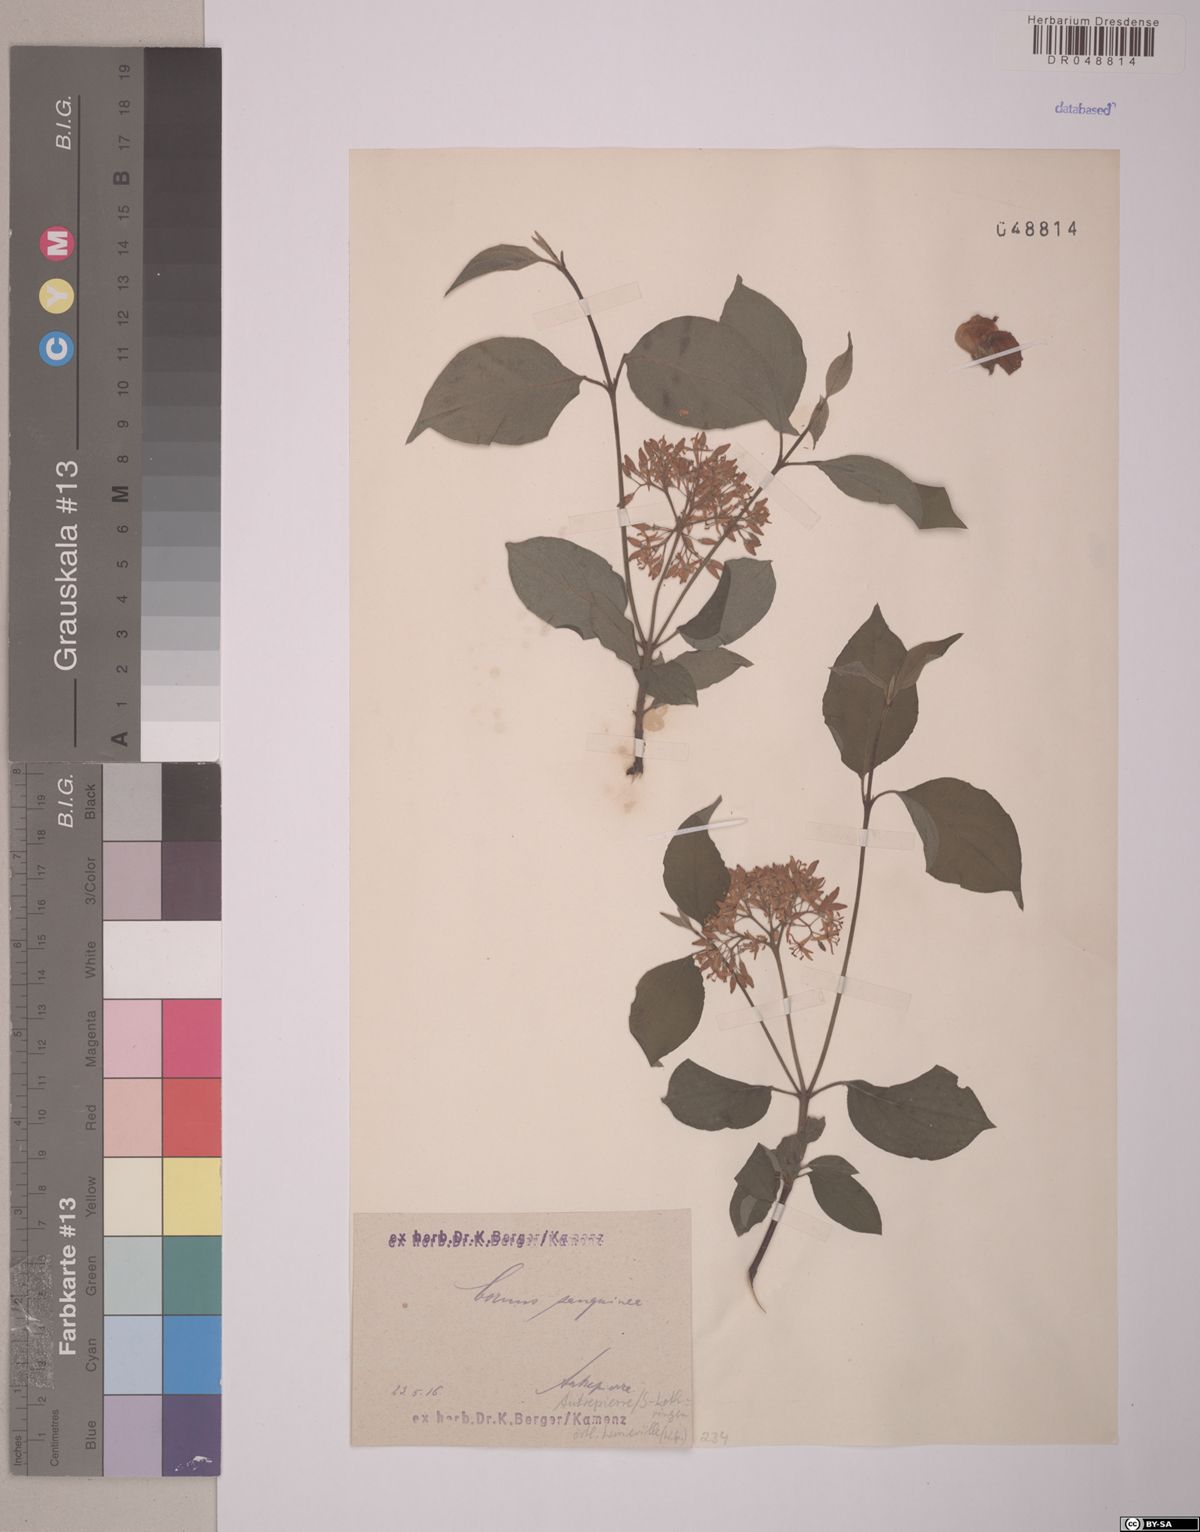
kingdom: Plantae
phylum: Tracheophyta
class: Magnoliopsida
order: Cornales
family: Cornaceae
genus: Cornus
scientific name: Cornus sanguinea
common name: Dogwood
